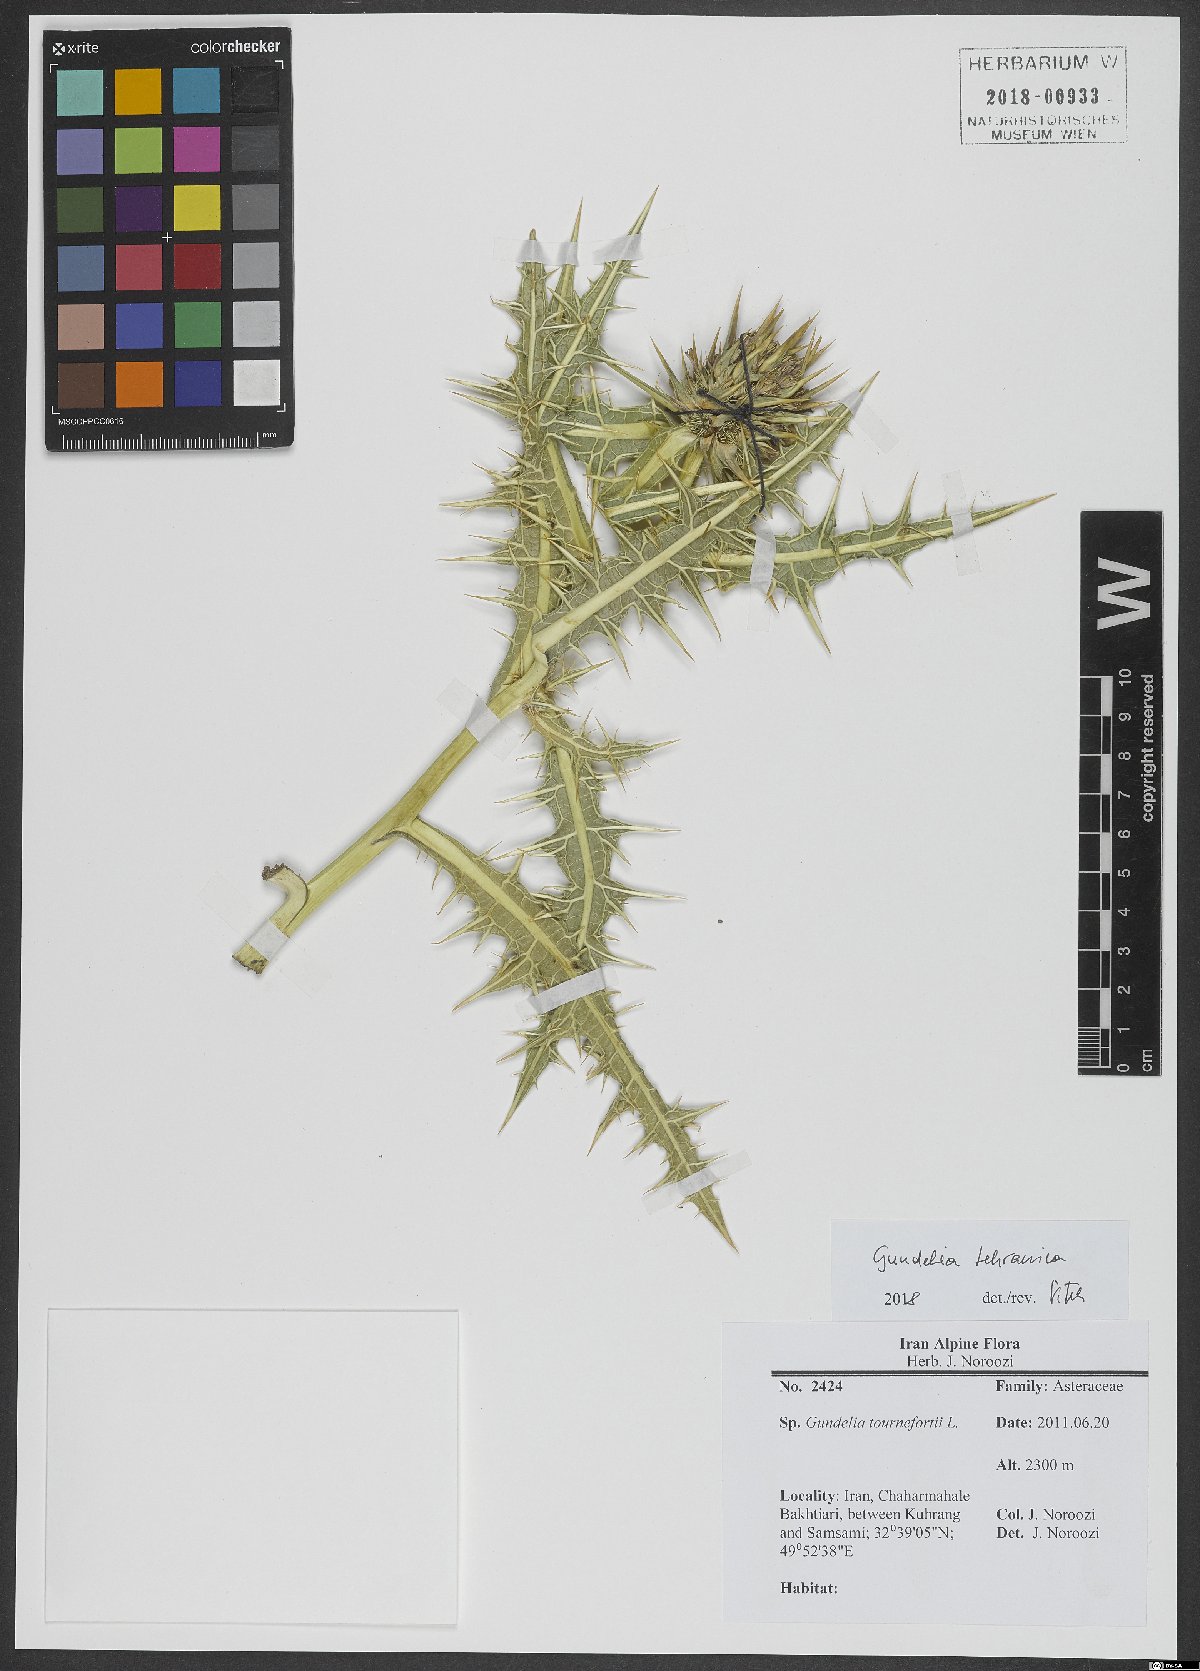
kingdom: Plantae
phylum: Tracheophyta
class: Magnoliopsida
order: Asterales
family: Asteraceae
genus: Gundelia
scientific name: Gundelia tehranica
